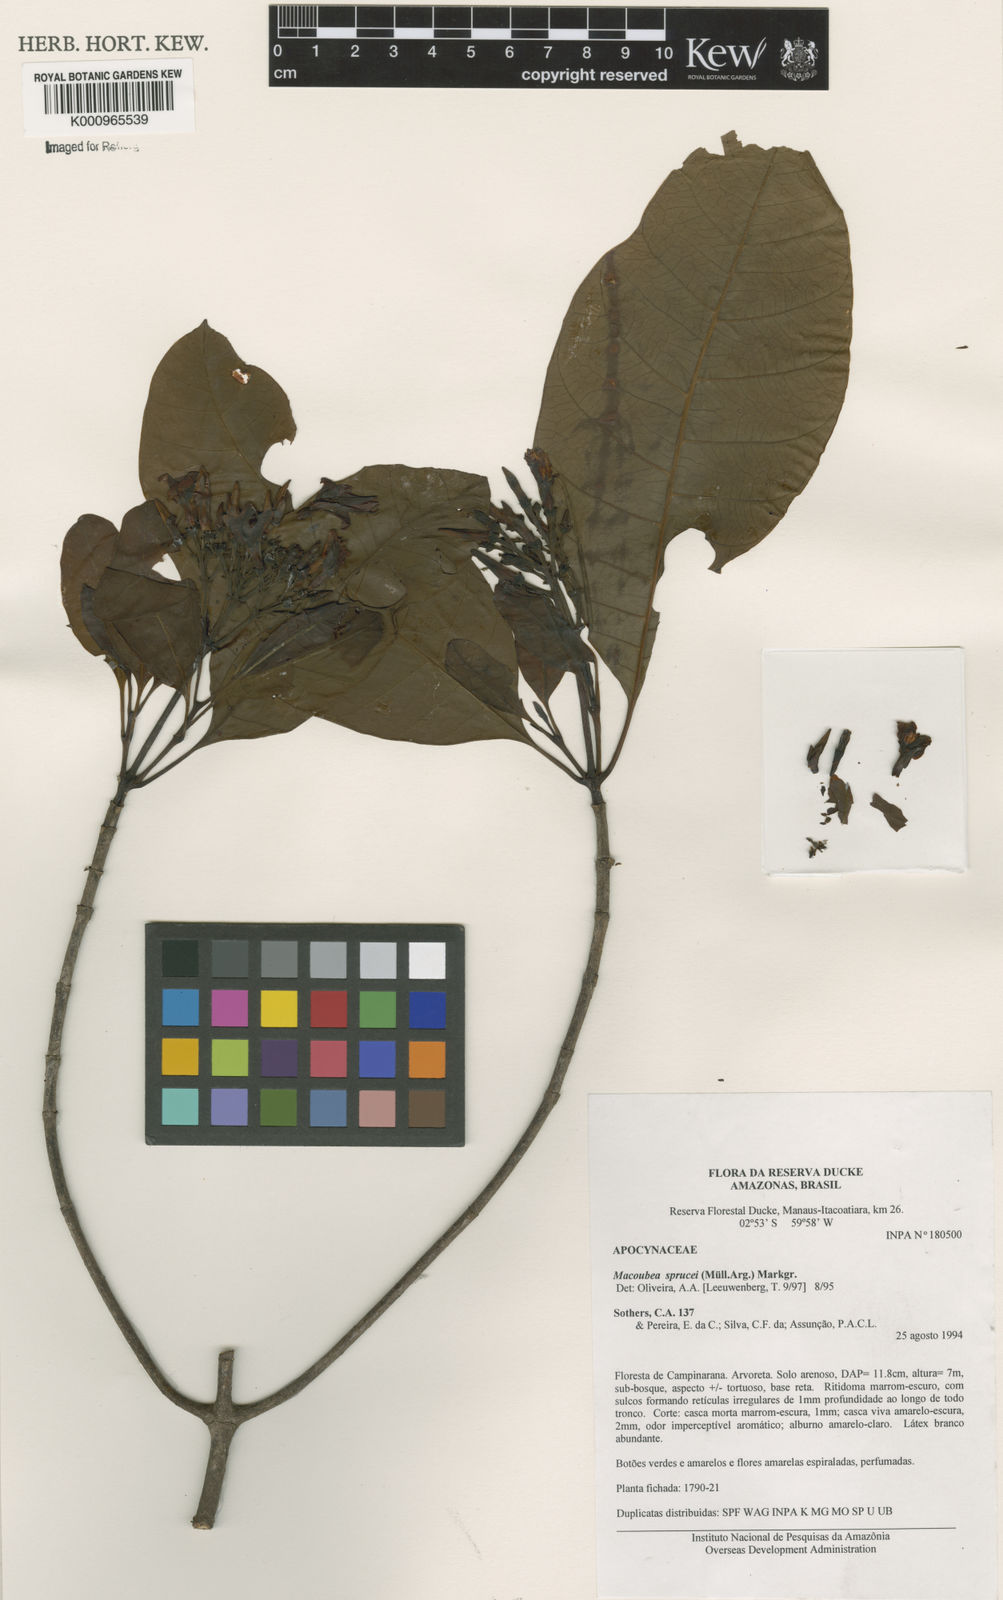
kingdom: Plantae
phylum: Tracheophyta
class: Magnoliopsida
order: Gentianales
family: Apocynaceae
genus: Macoubea
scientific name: Macoubea
